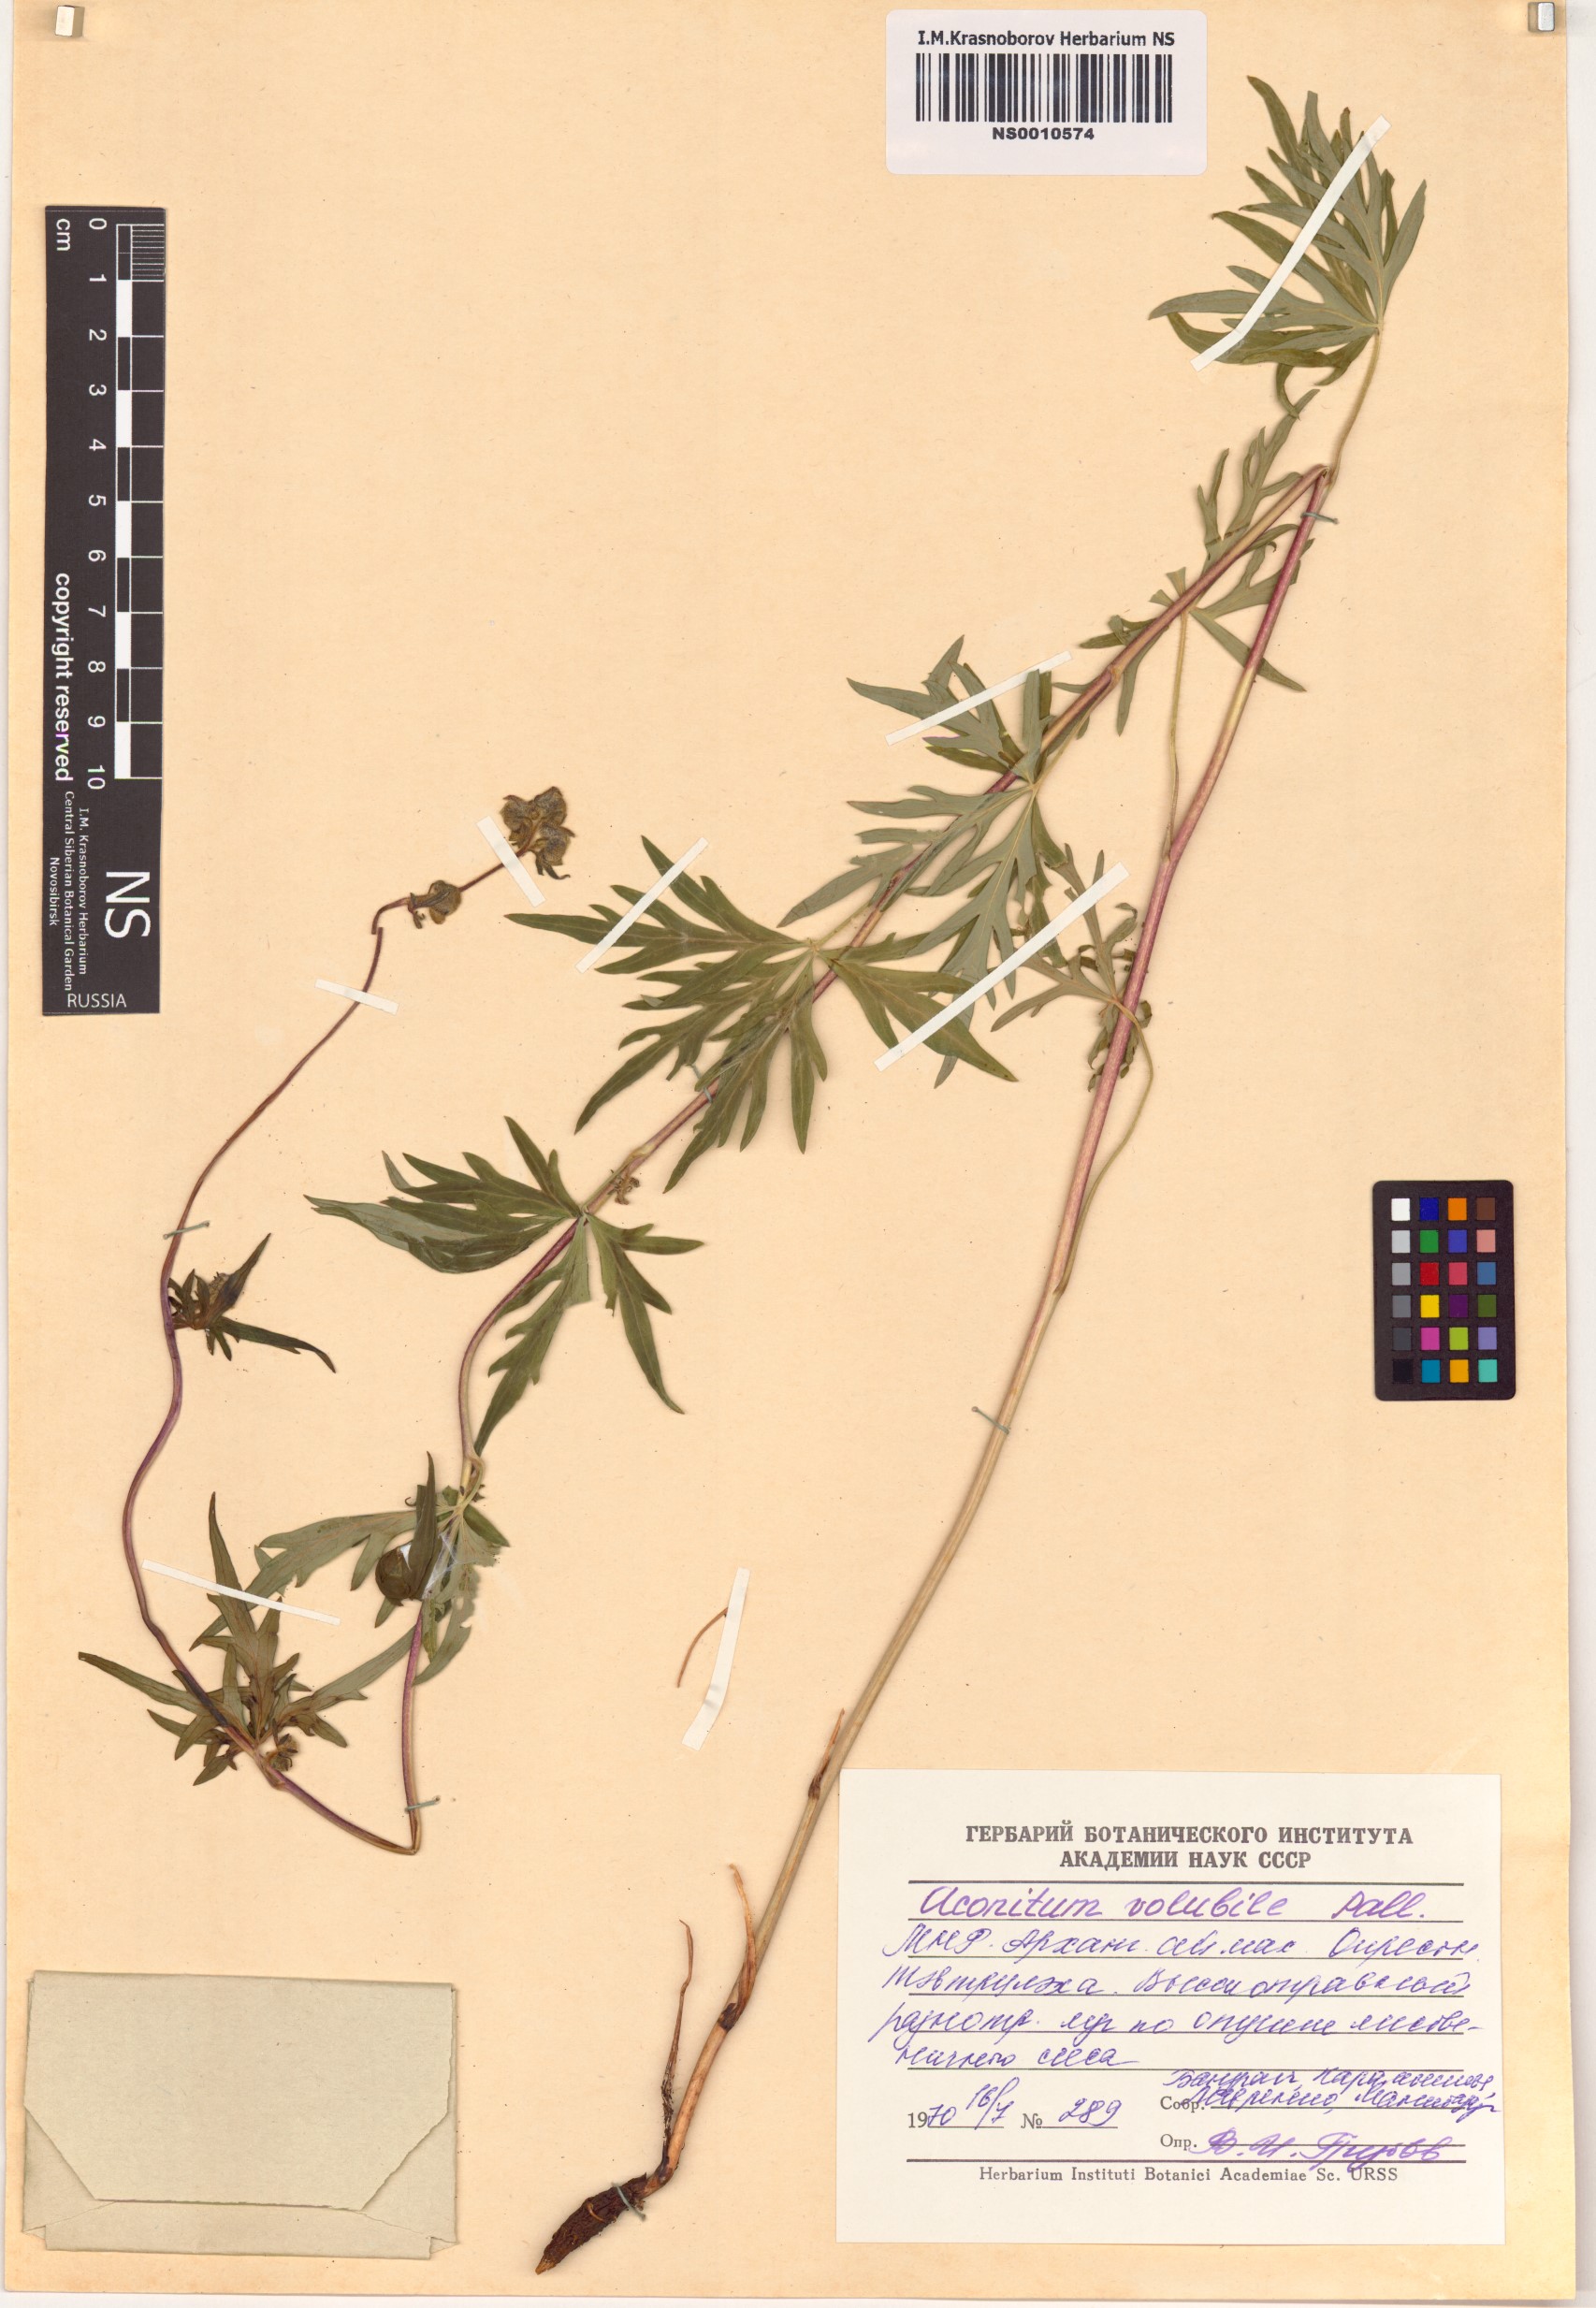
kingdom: Plantae
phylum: Tracheophyta
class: Magnoliopsida
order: Ranunculales
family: Ranunculaceae
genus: Aconitum
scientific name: Aconitum volubile
